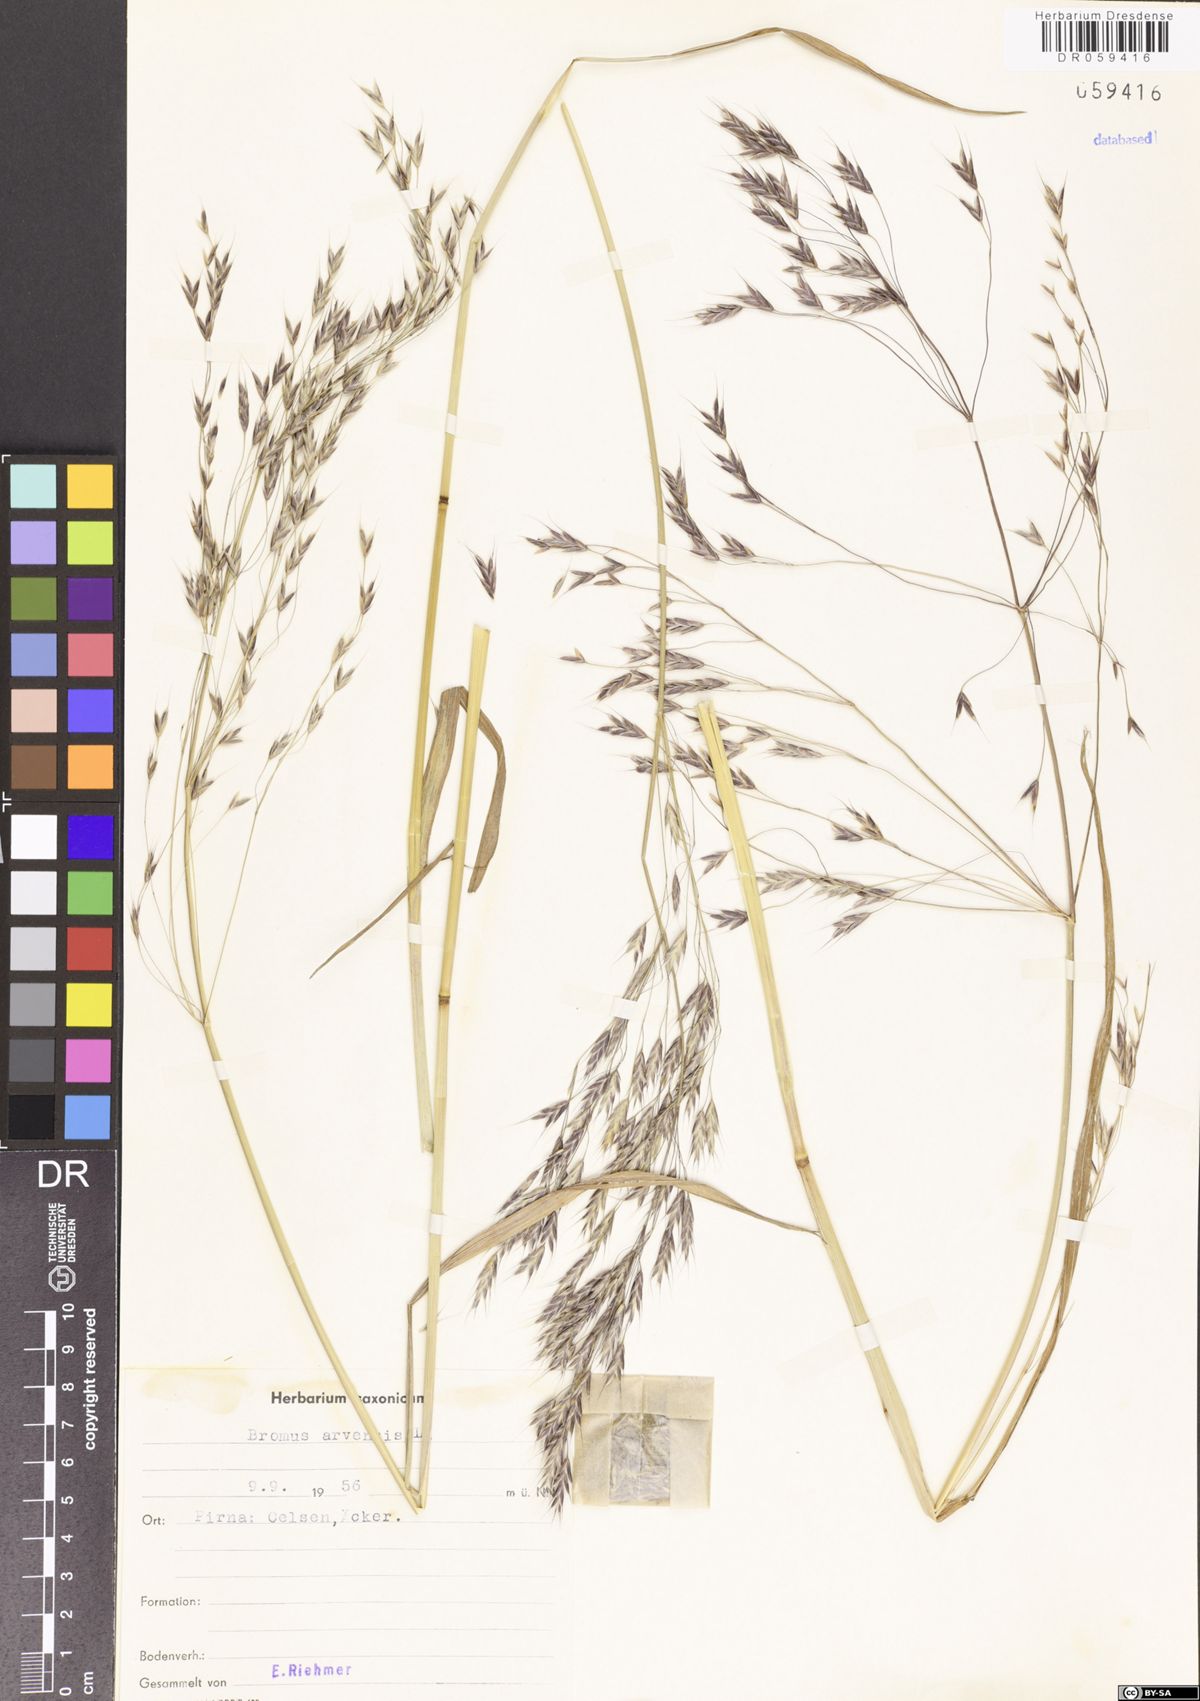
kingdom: Plantae
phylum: Tracheophyta
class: Liliopsida
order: Poales
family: Poaceae
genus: Bromus
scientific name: Bromus arvensis
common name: Field brome
